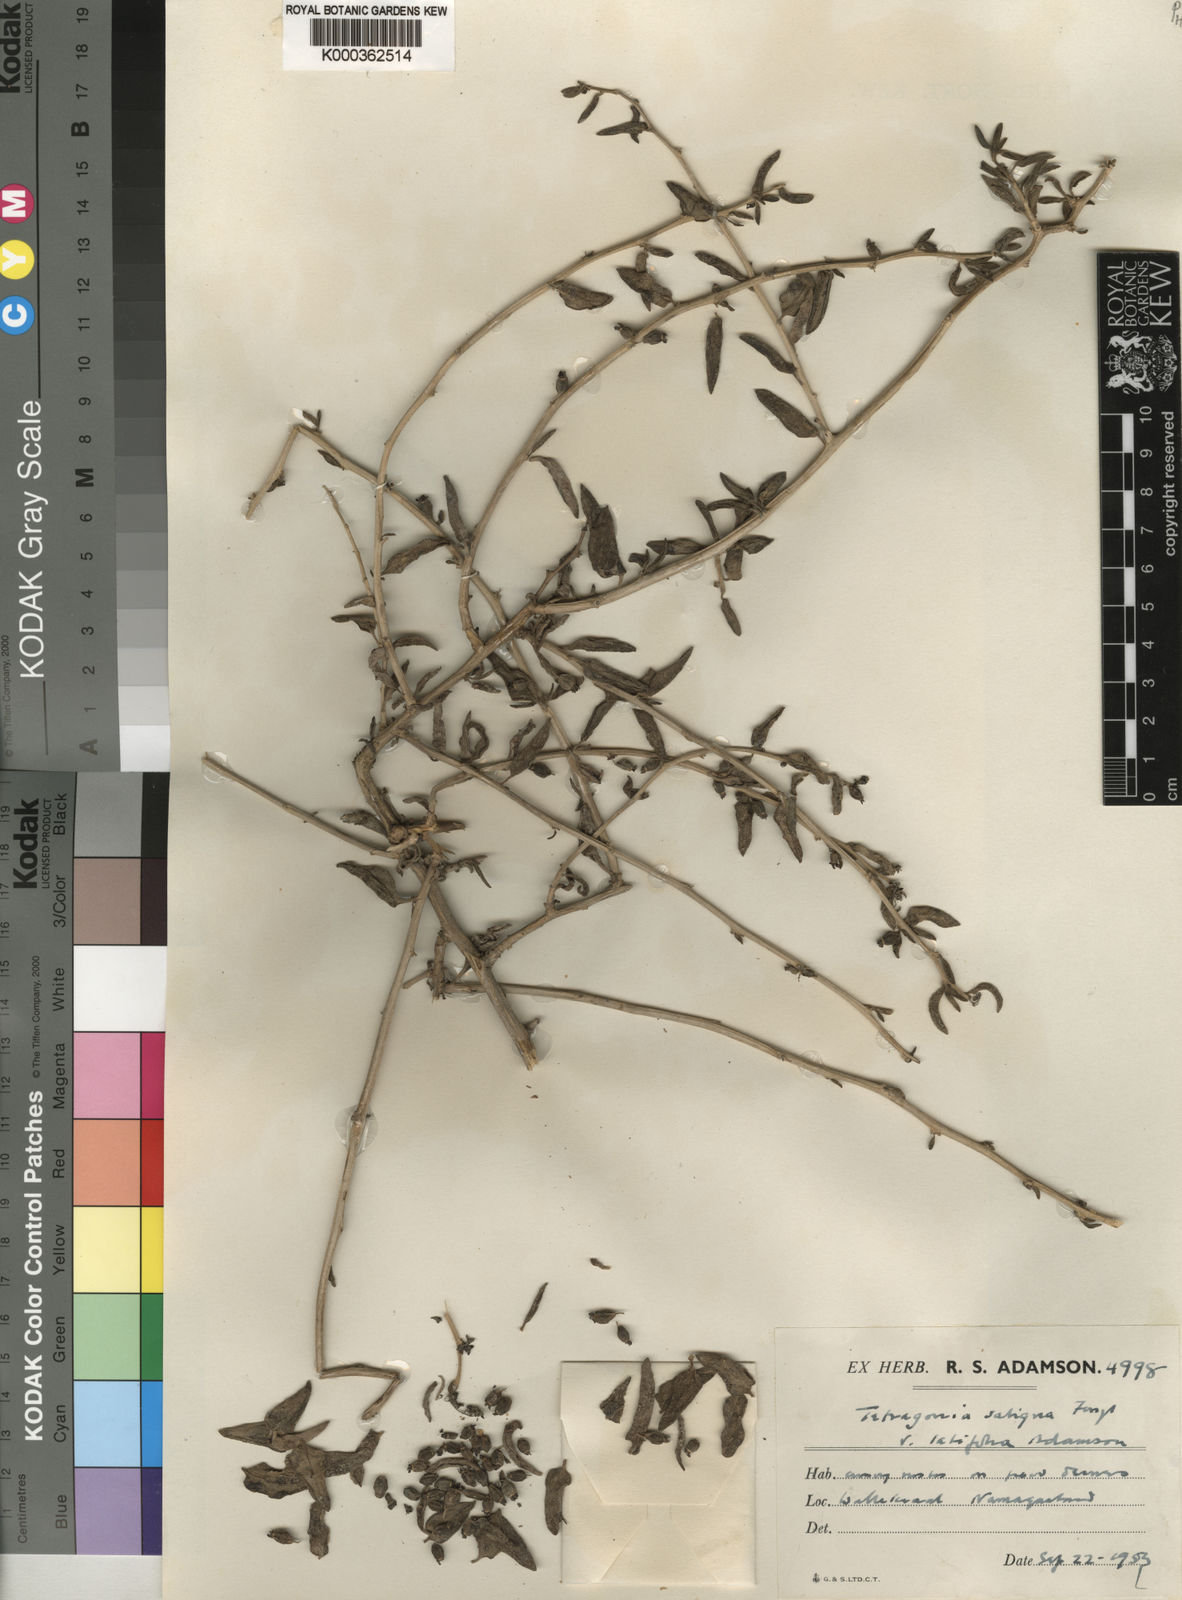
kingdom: Plantae
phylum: Tracheophyta
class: Magnoliopsida
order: Caryophyllales
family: Aizoaceae
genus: Tetragonia
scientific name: Tetragonia saligna
